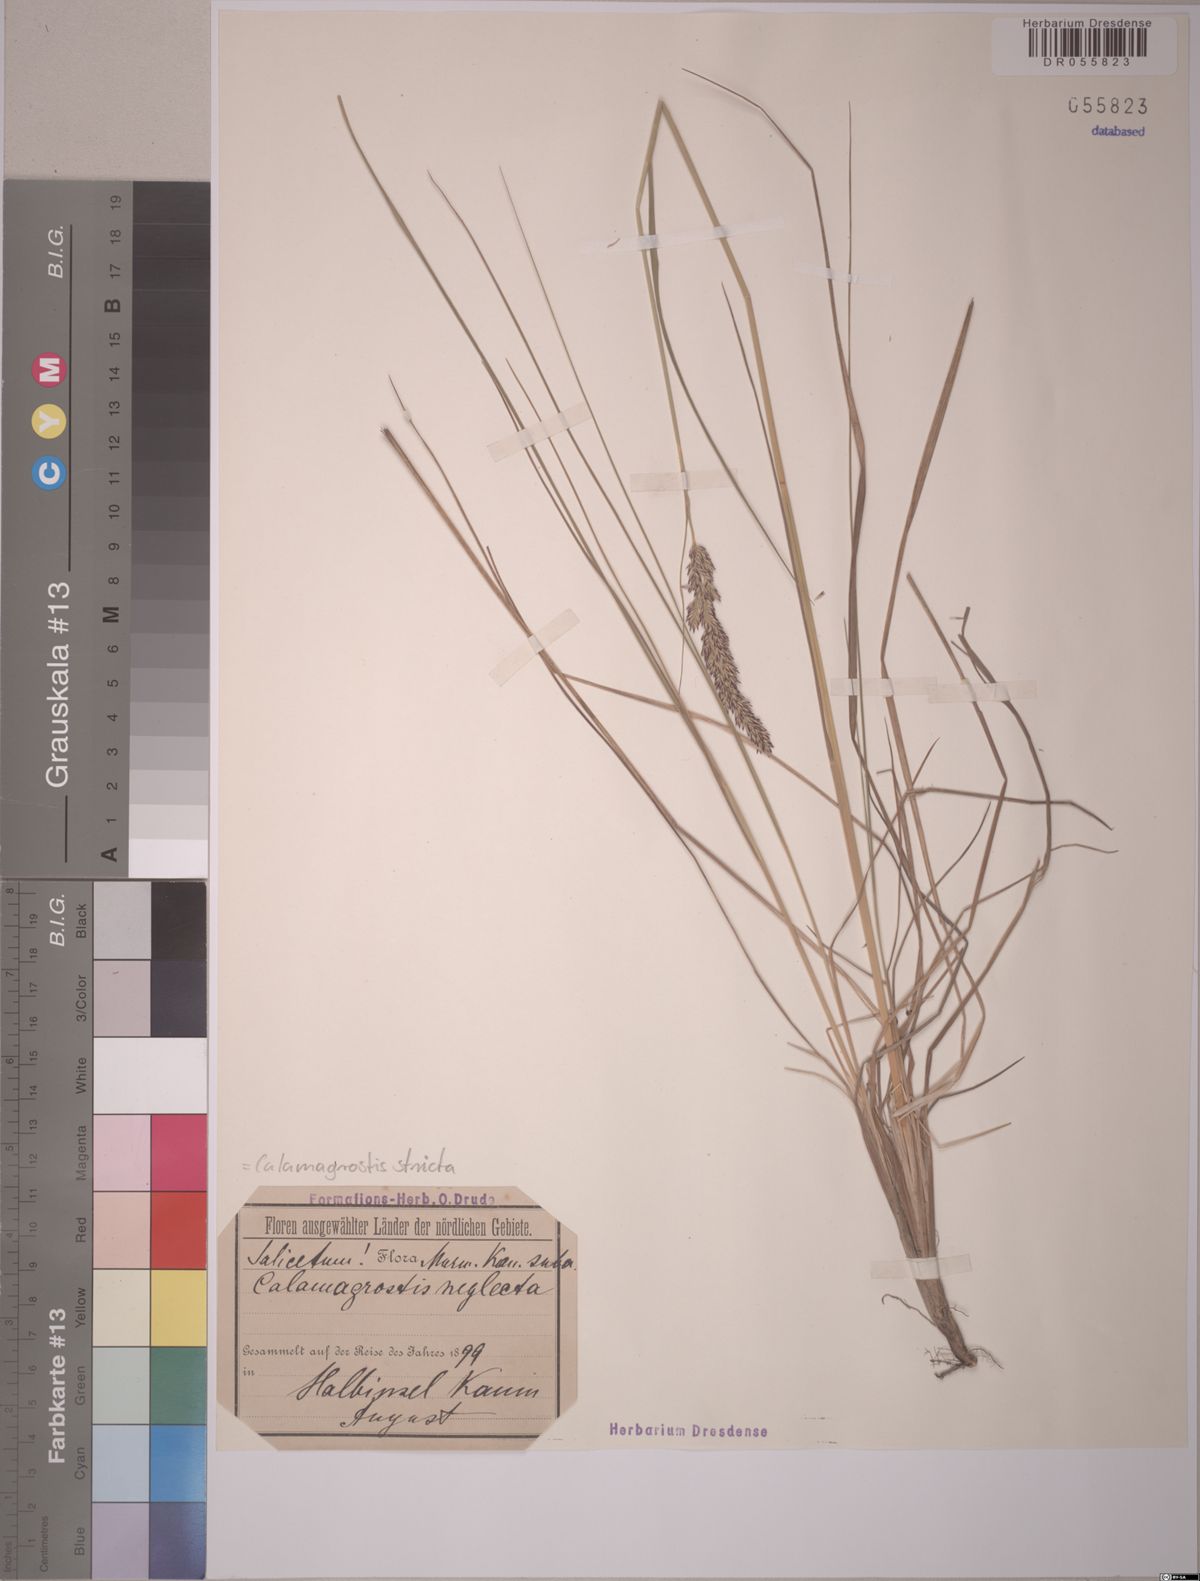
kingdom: Plantae
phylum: Tracheophyta
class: Liliopsida
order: Poales
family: Poaceae
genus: Calamagrostis
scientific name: Calamagrostis stricta
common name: Narrow small-reed
